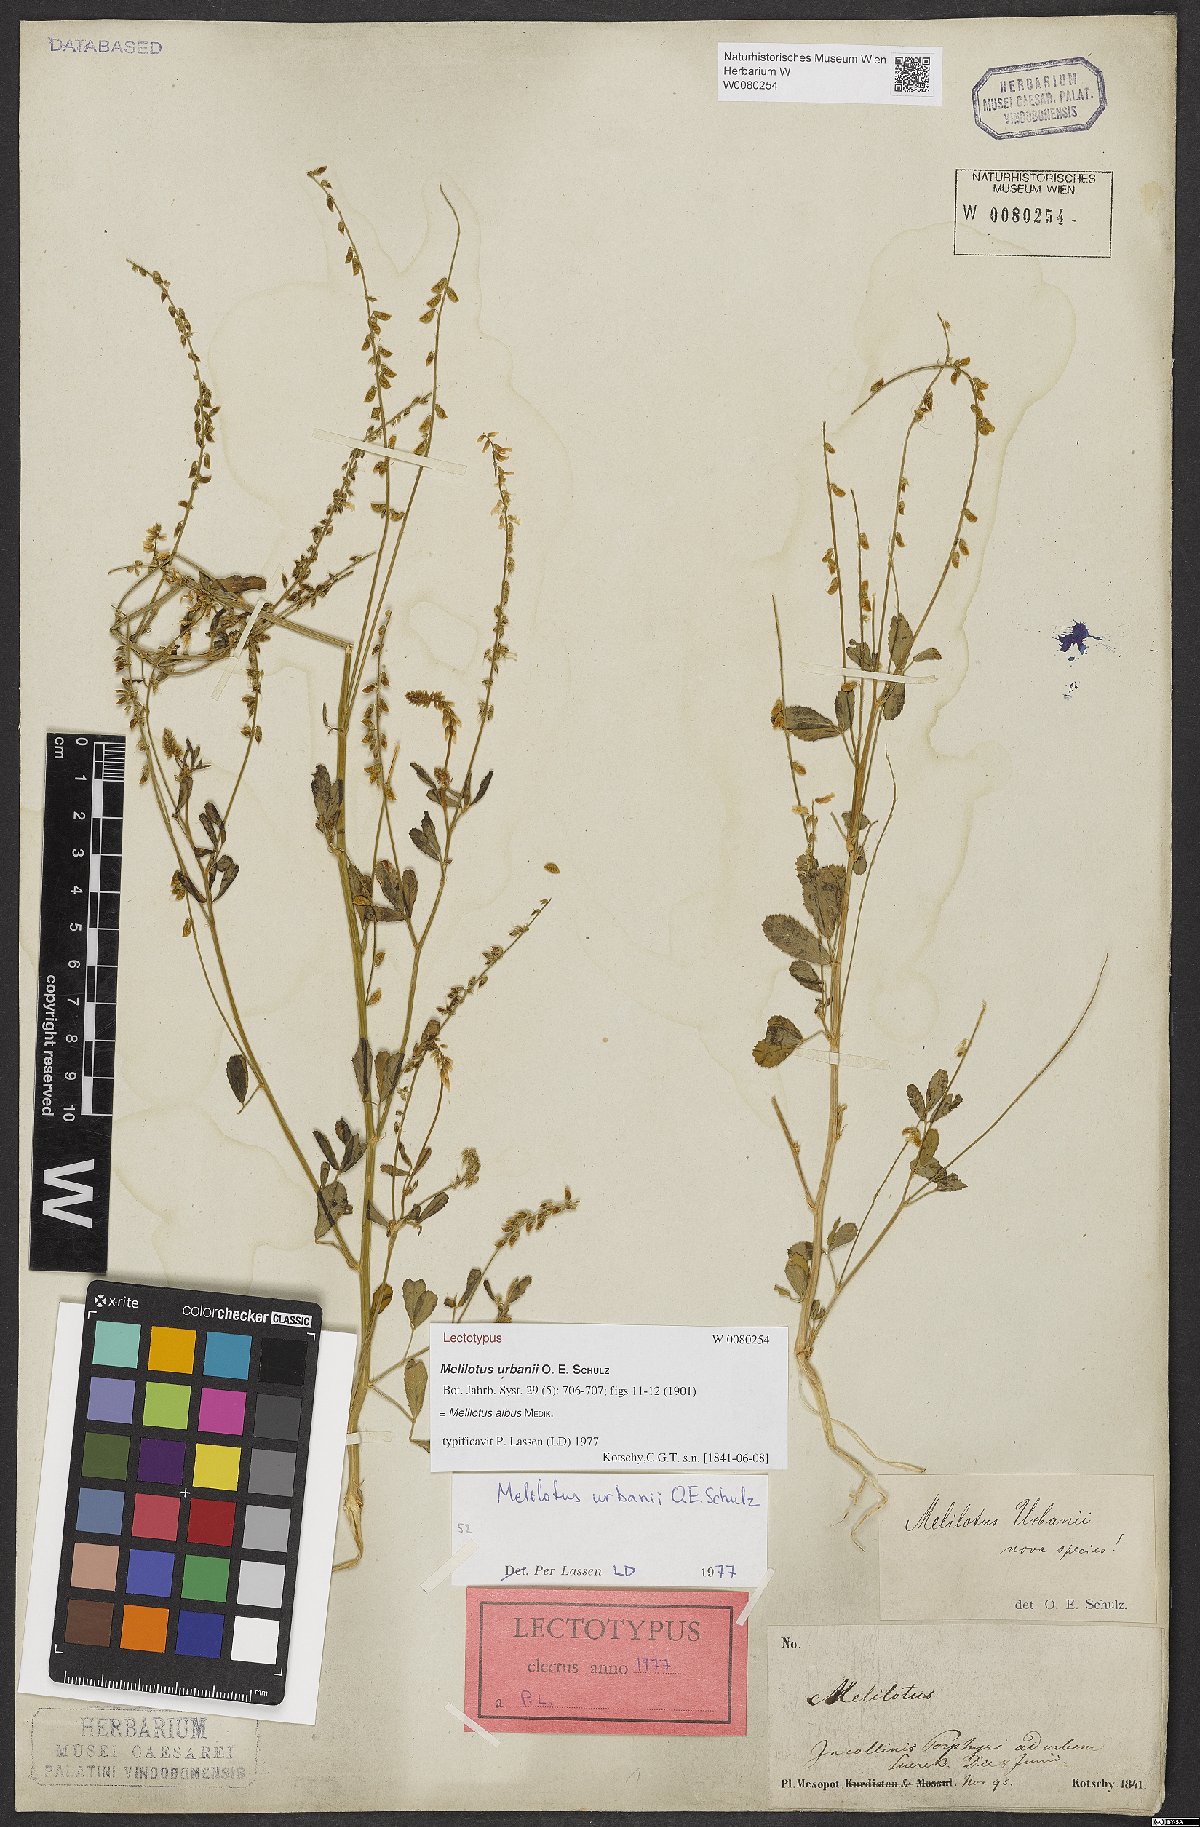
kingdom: Plantae
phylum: Tracheophyta
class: Magnoliopsida
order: Fabales
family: Fabaceae
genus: Melilotus
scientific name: Melilotus albus
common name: White melilot
